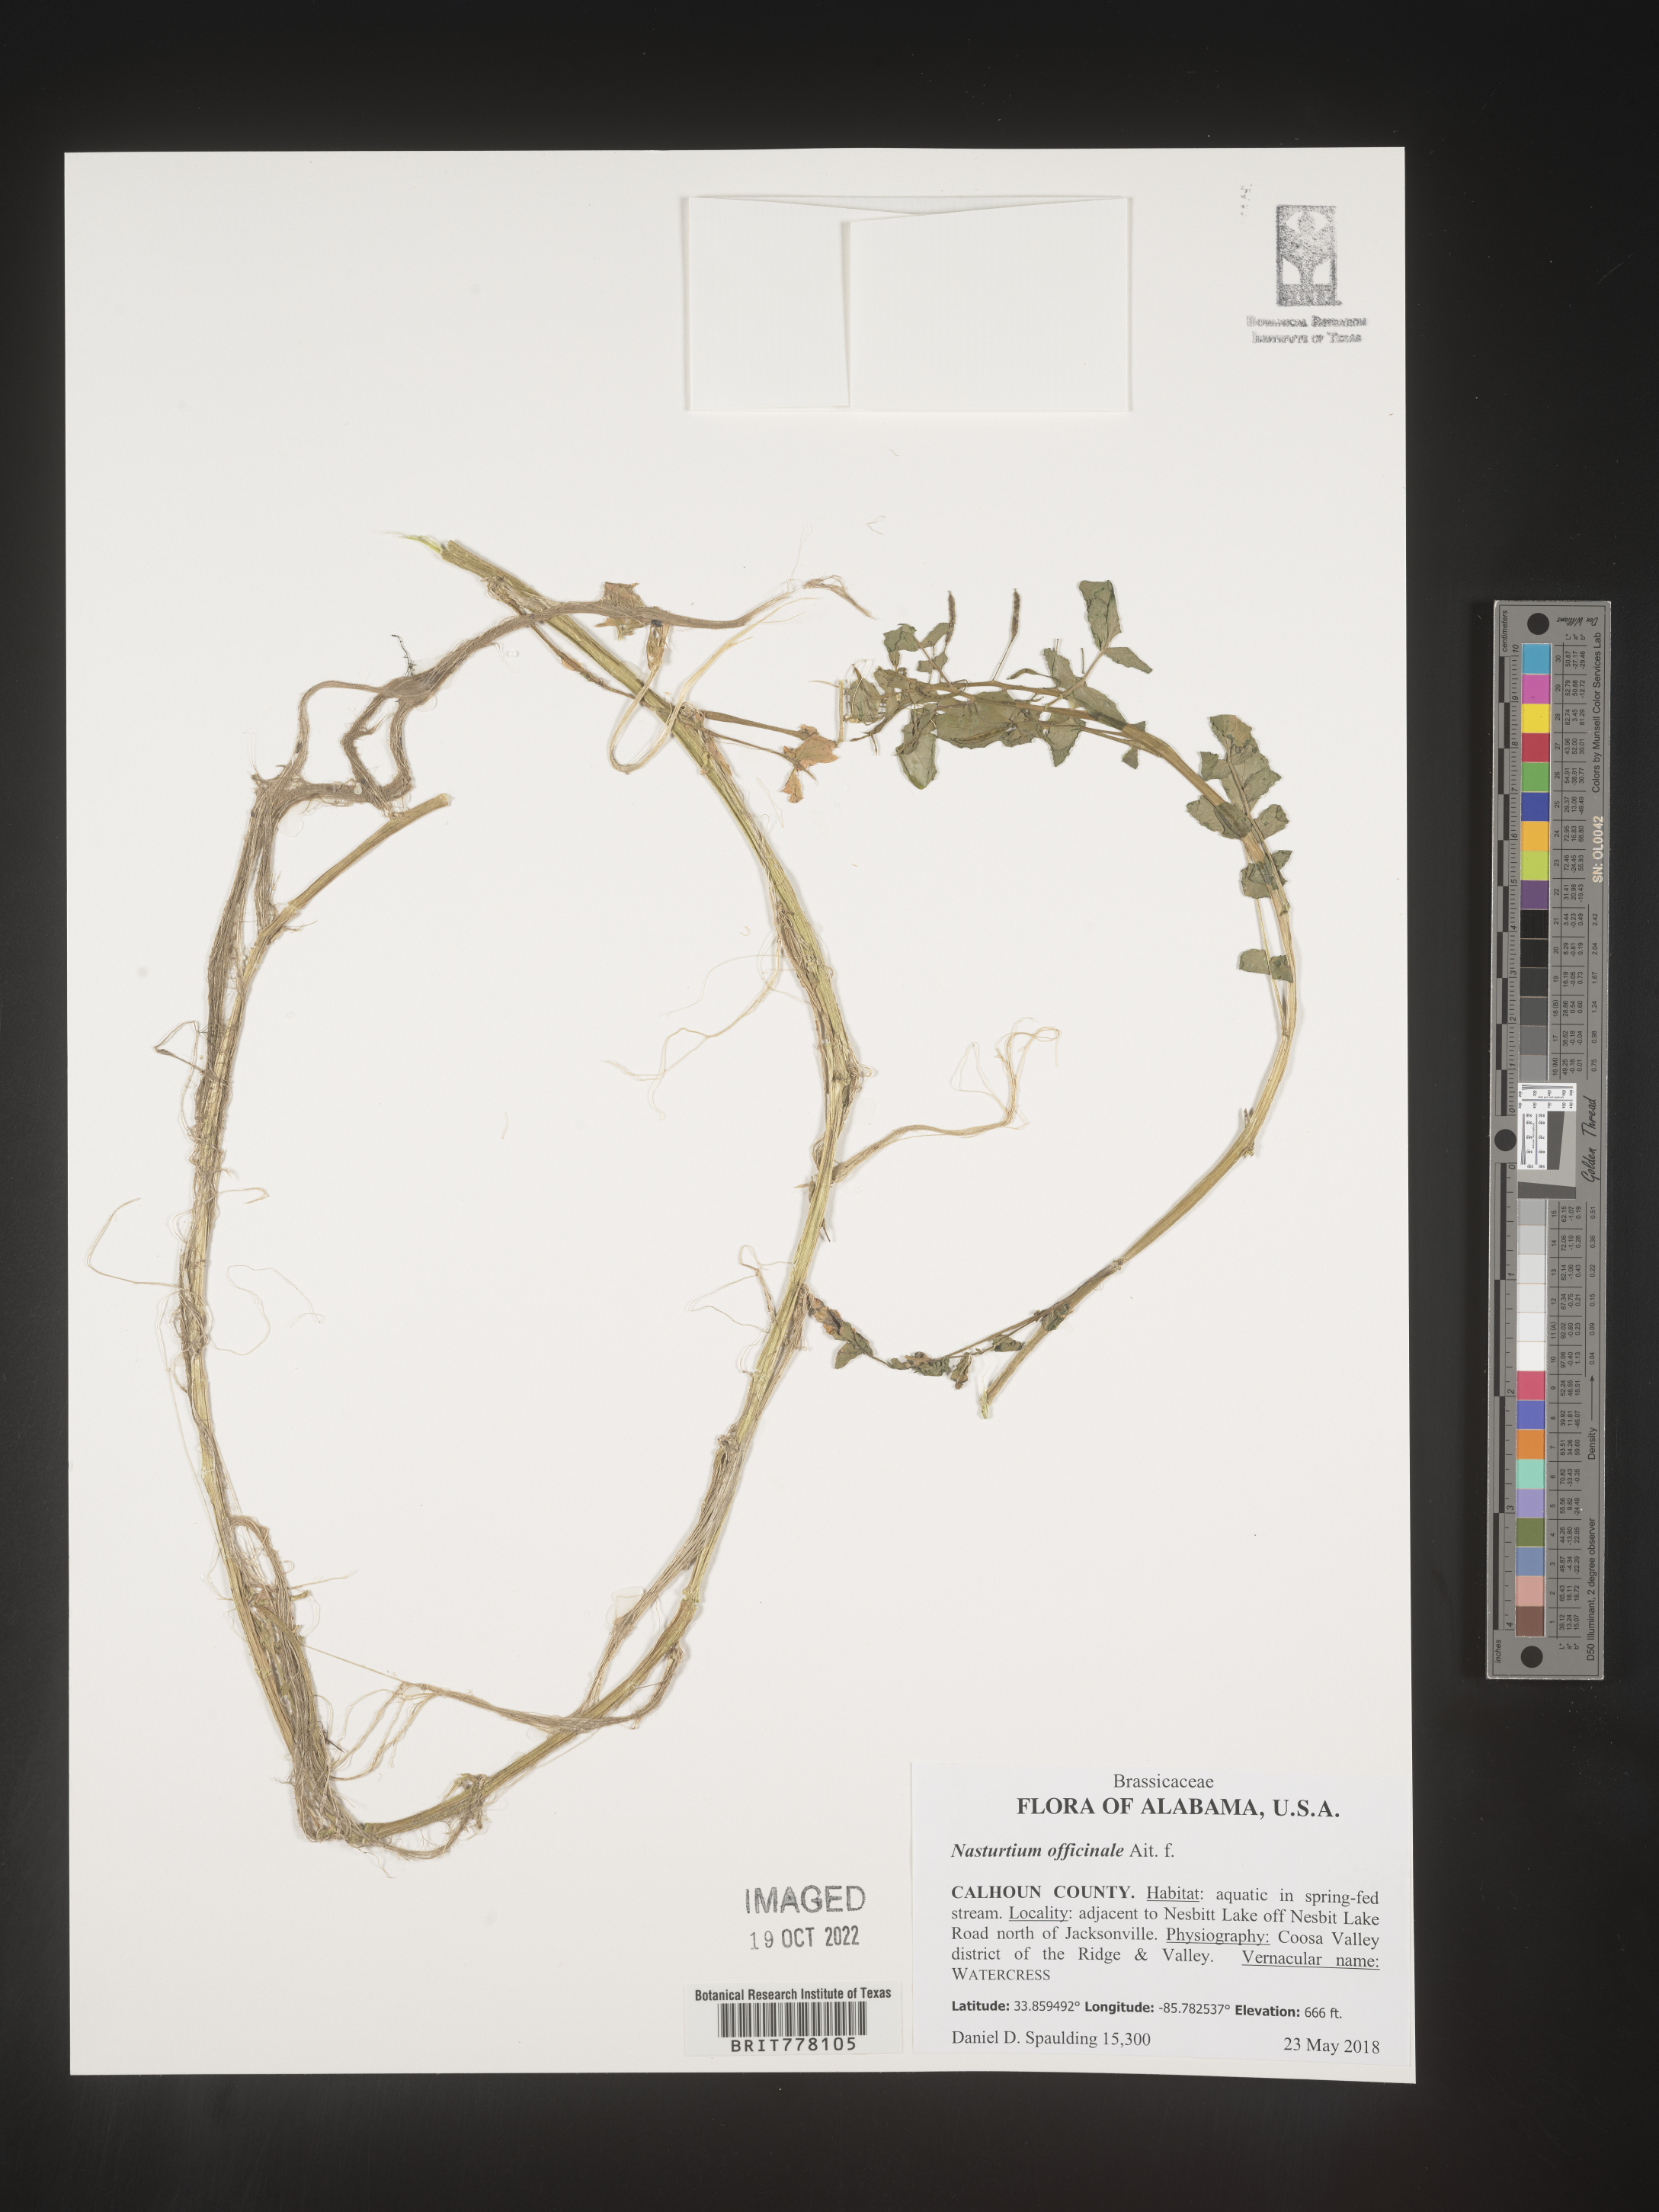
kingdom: Plantae
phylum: Tracheophyta
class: Magnoliopsida
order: Brassicales
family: Brassicaceae
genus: Nasturtium
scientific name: Nasturtium
